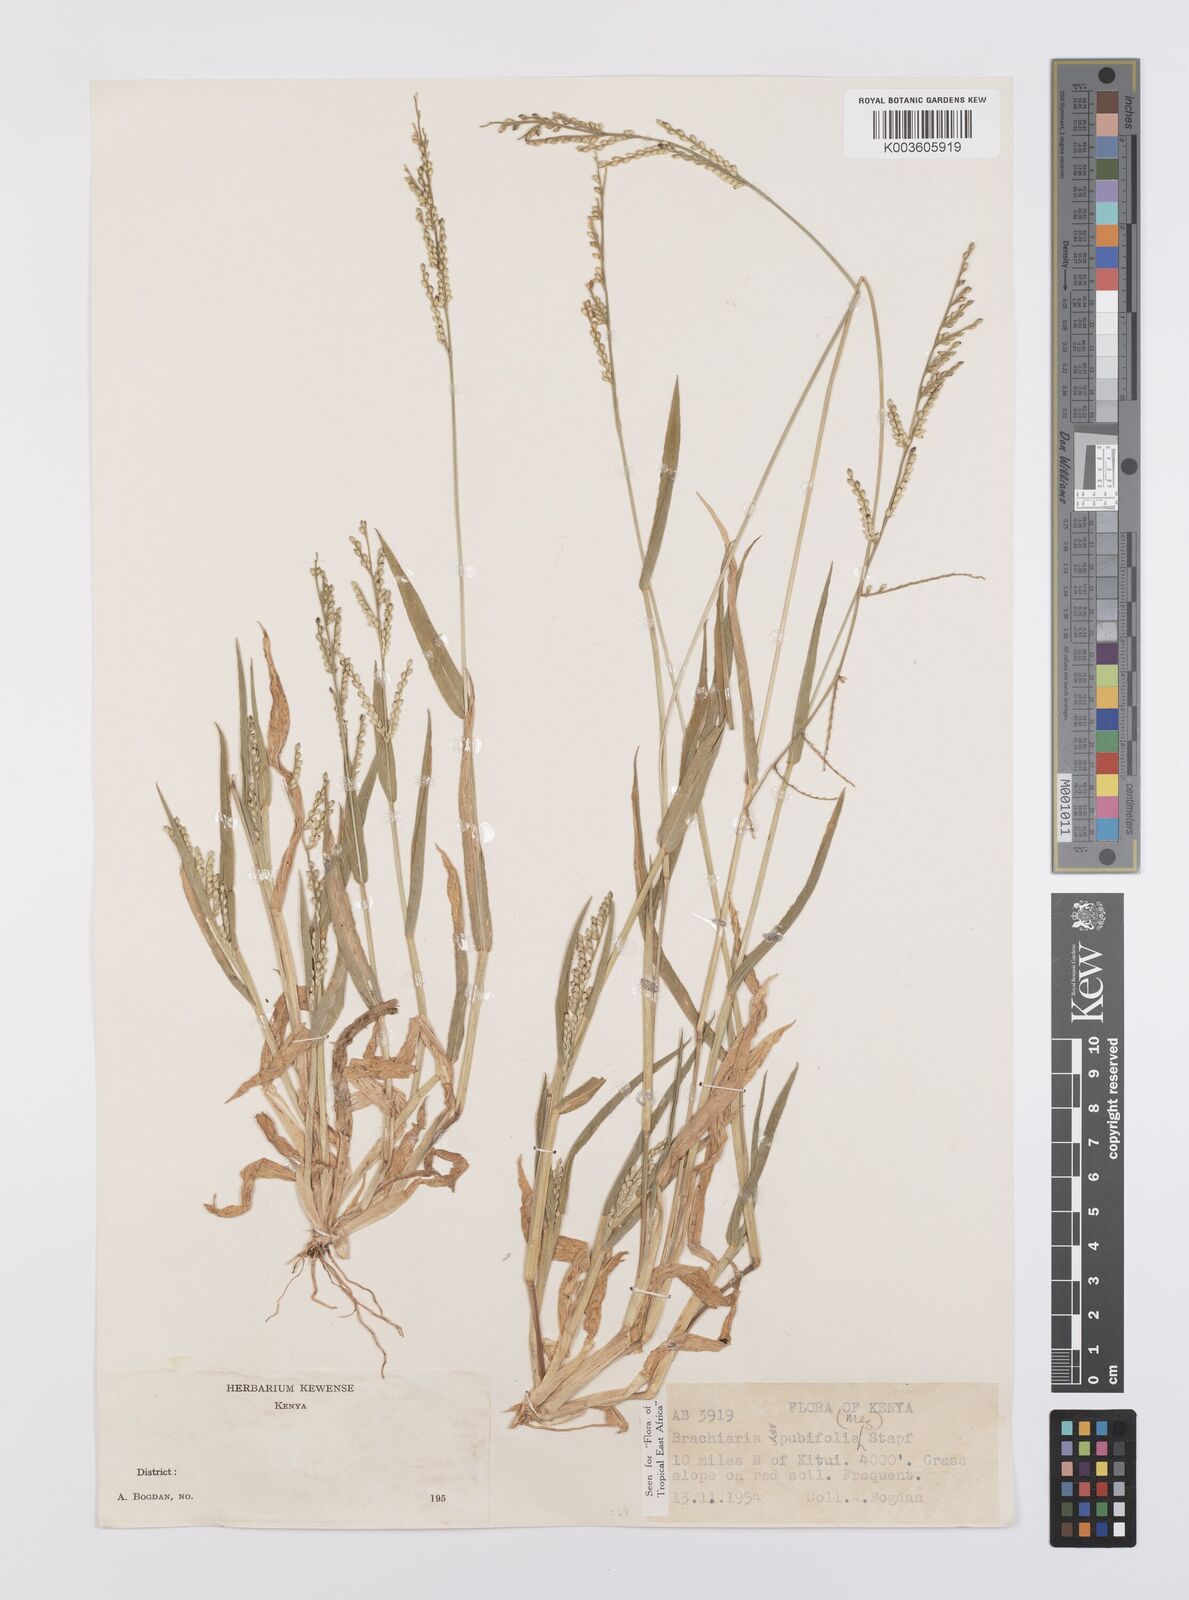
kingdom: Plantae
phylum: Tracheophyta
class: Liliopsida
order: Poales
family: Poaceae
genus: Urochloa
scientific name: Urochloa xantholeuca
